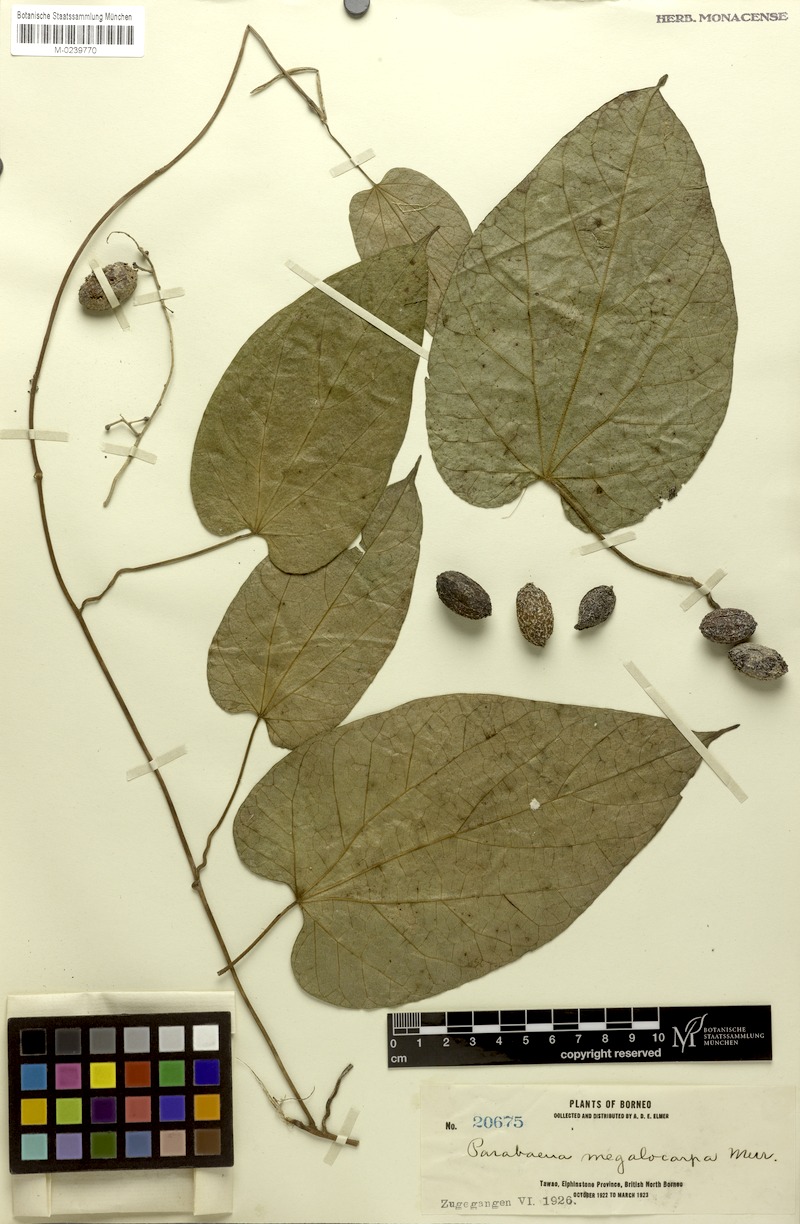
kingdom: Plantae
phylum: Tracheophyta
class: Magnoliopsida
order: Ranunculales
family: Menispermaceae
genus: Parabaena
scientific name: Parabaena megalocarpa
